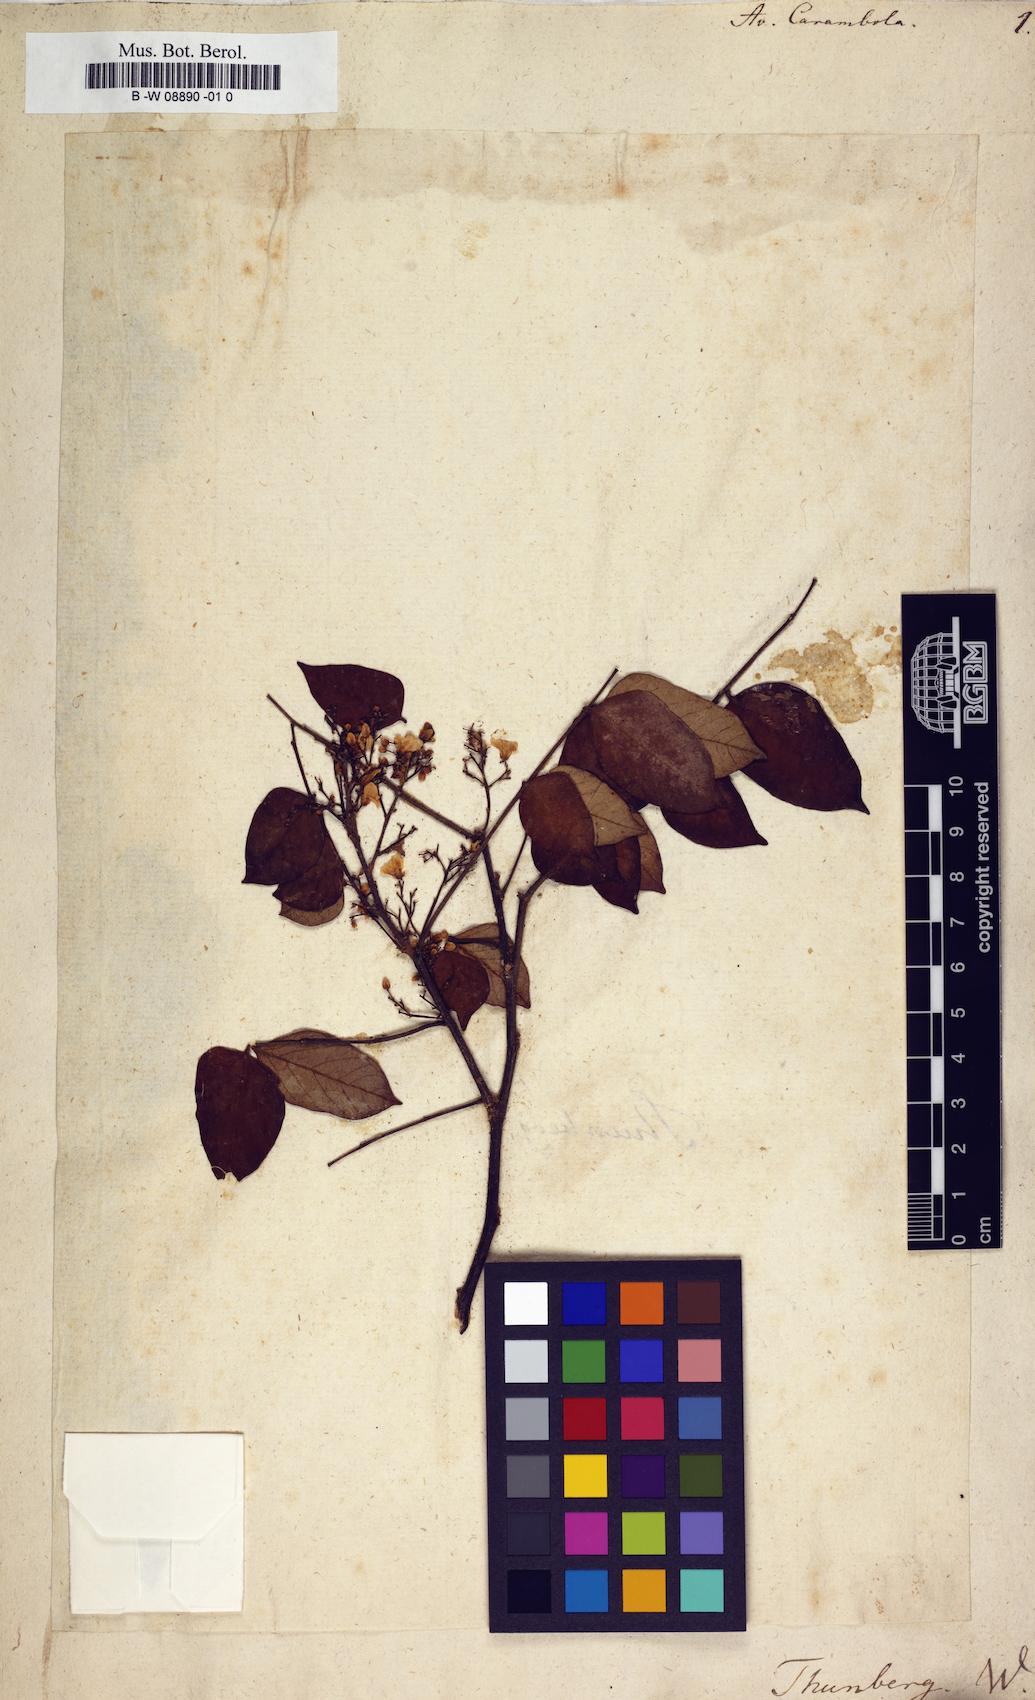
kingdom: Plantae
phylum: Tracheophyta
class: Magnoliopsida
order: Oxalidales
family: Oxalidaceae
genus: Averrhoa
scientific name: Averrhoa carambola
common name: Blimbing
